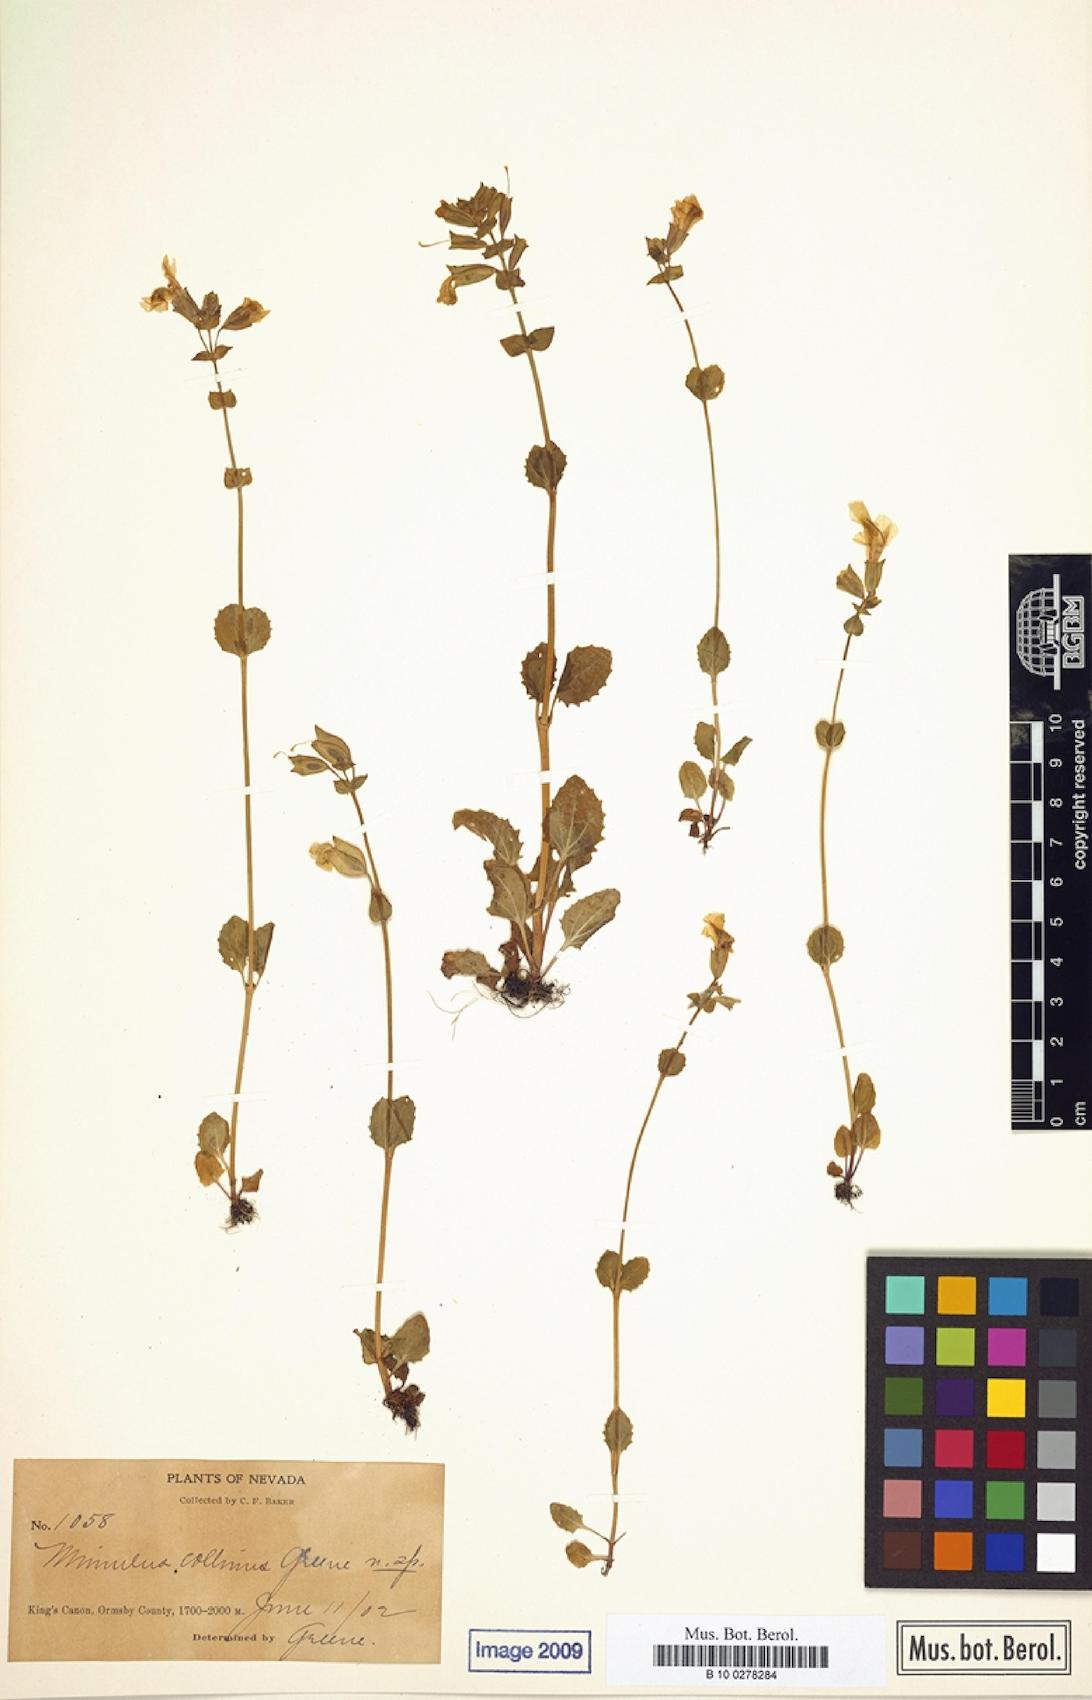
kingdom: Plantae
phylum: Tracheophyta
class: Magnoliopsida
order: Lamiales
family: Scrophulariaceae
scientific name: Scrophulariaceae
